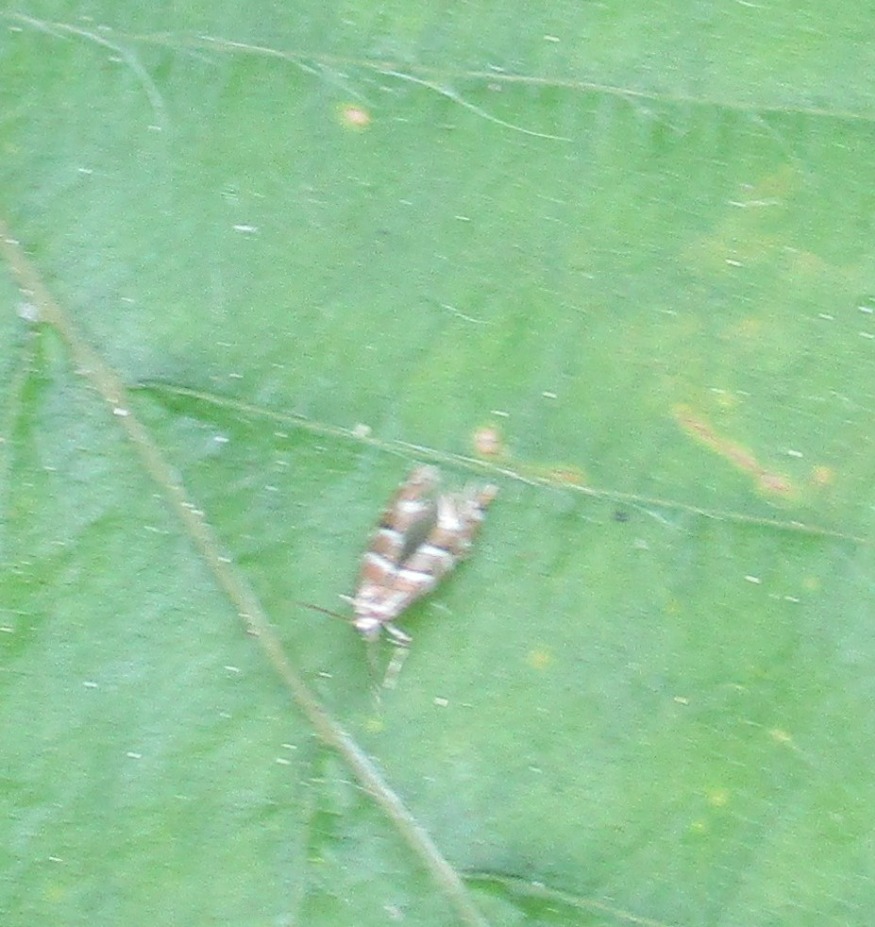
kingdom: Animalia
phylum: Arthropoda
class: Insecta
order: Lepidoptera
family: Gracillariidae
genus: Cameraria
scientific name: Cameraria ohridella
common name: Kastanieminérmøl
